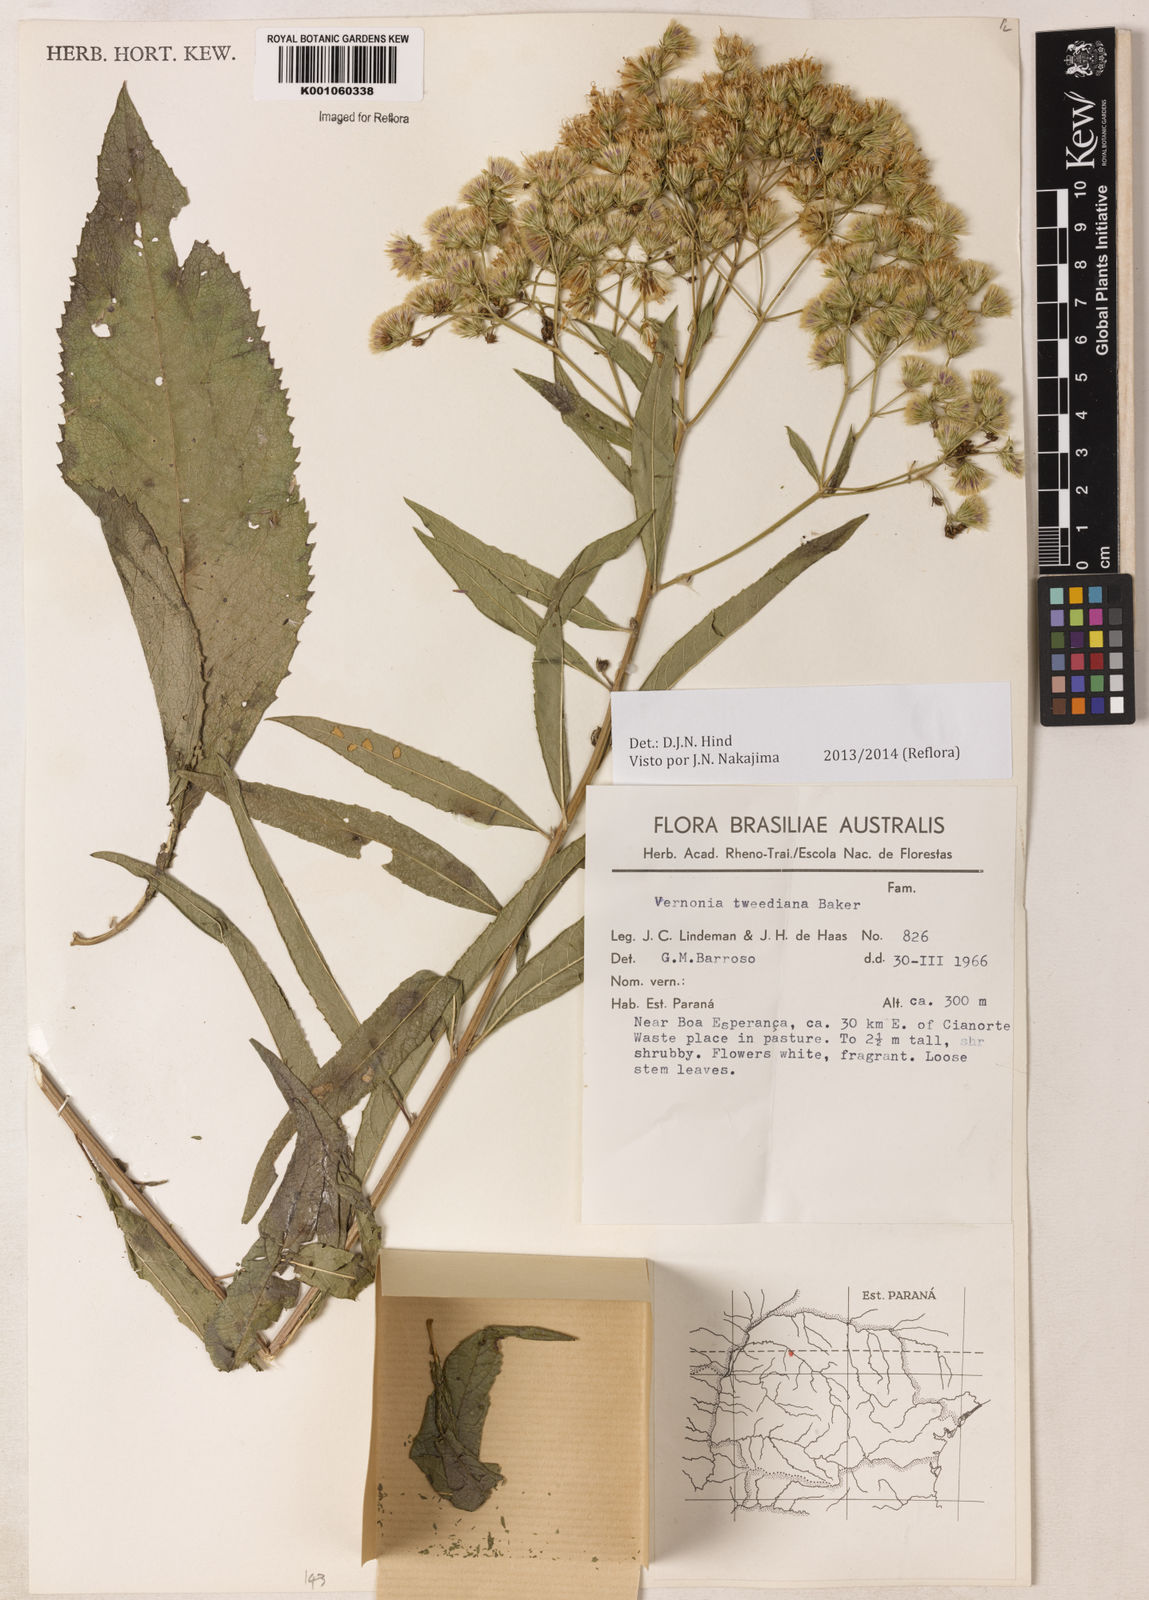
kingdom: Plantae
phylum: Tracheophyta
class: Magnoliopsida
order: Asterales
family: Asteraceae
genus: Vernonia
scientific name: Vernonia
